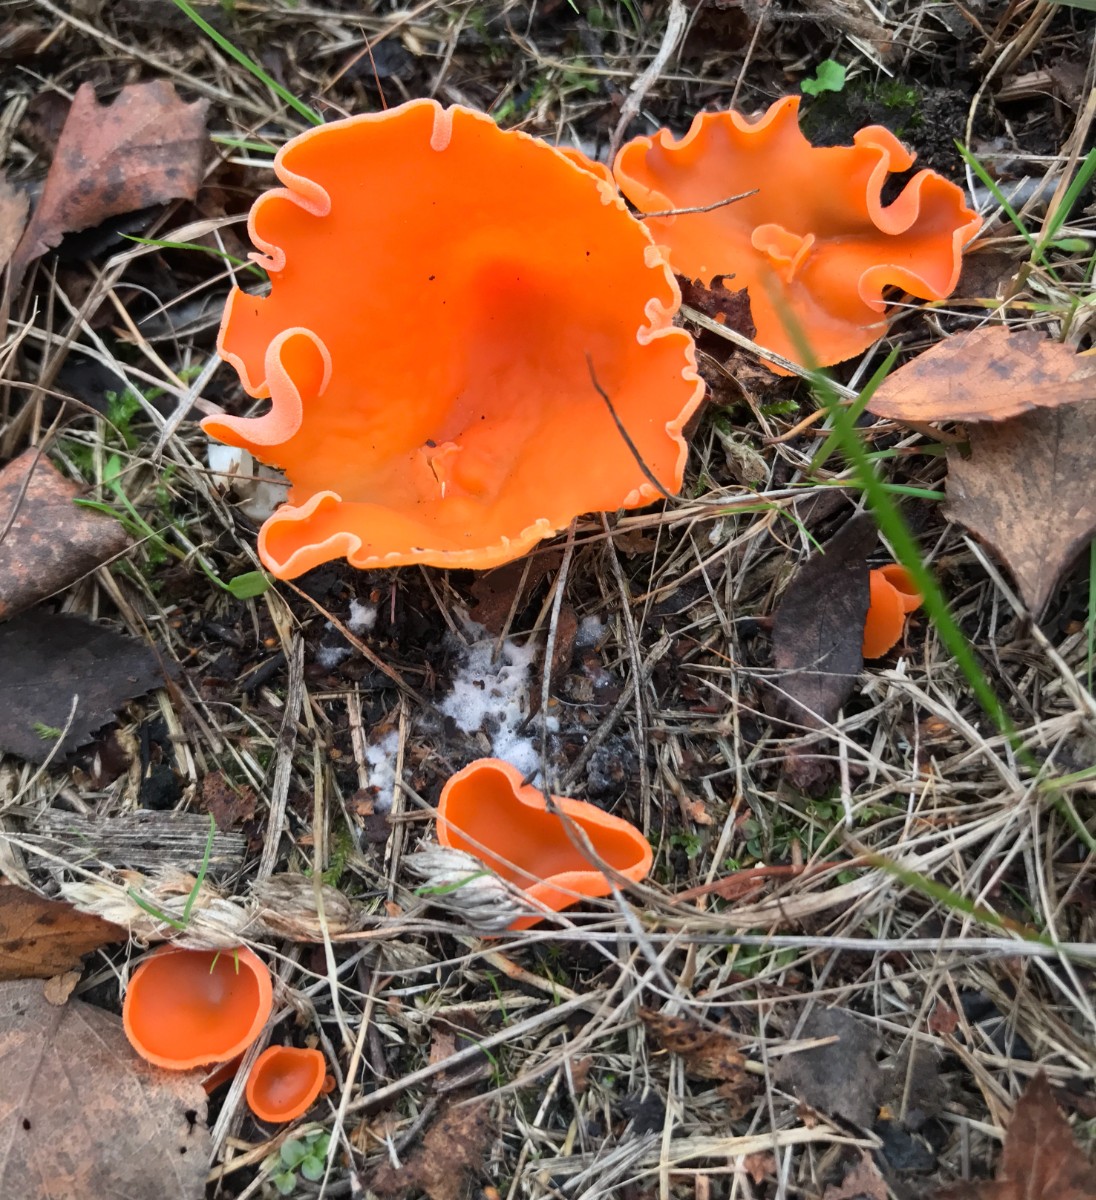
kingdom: Fungi
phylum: Ascomycota
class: Pezizomycetes
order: Pezizales
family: Pyronemataceae
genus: Aleuria
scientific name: Aleuria aurantia
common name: almindelig orangebæger
